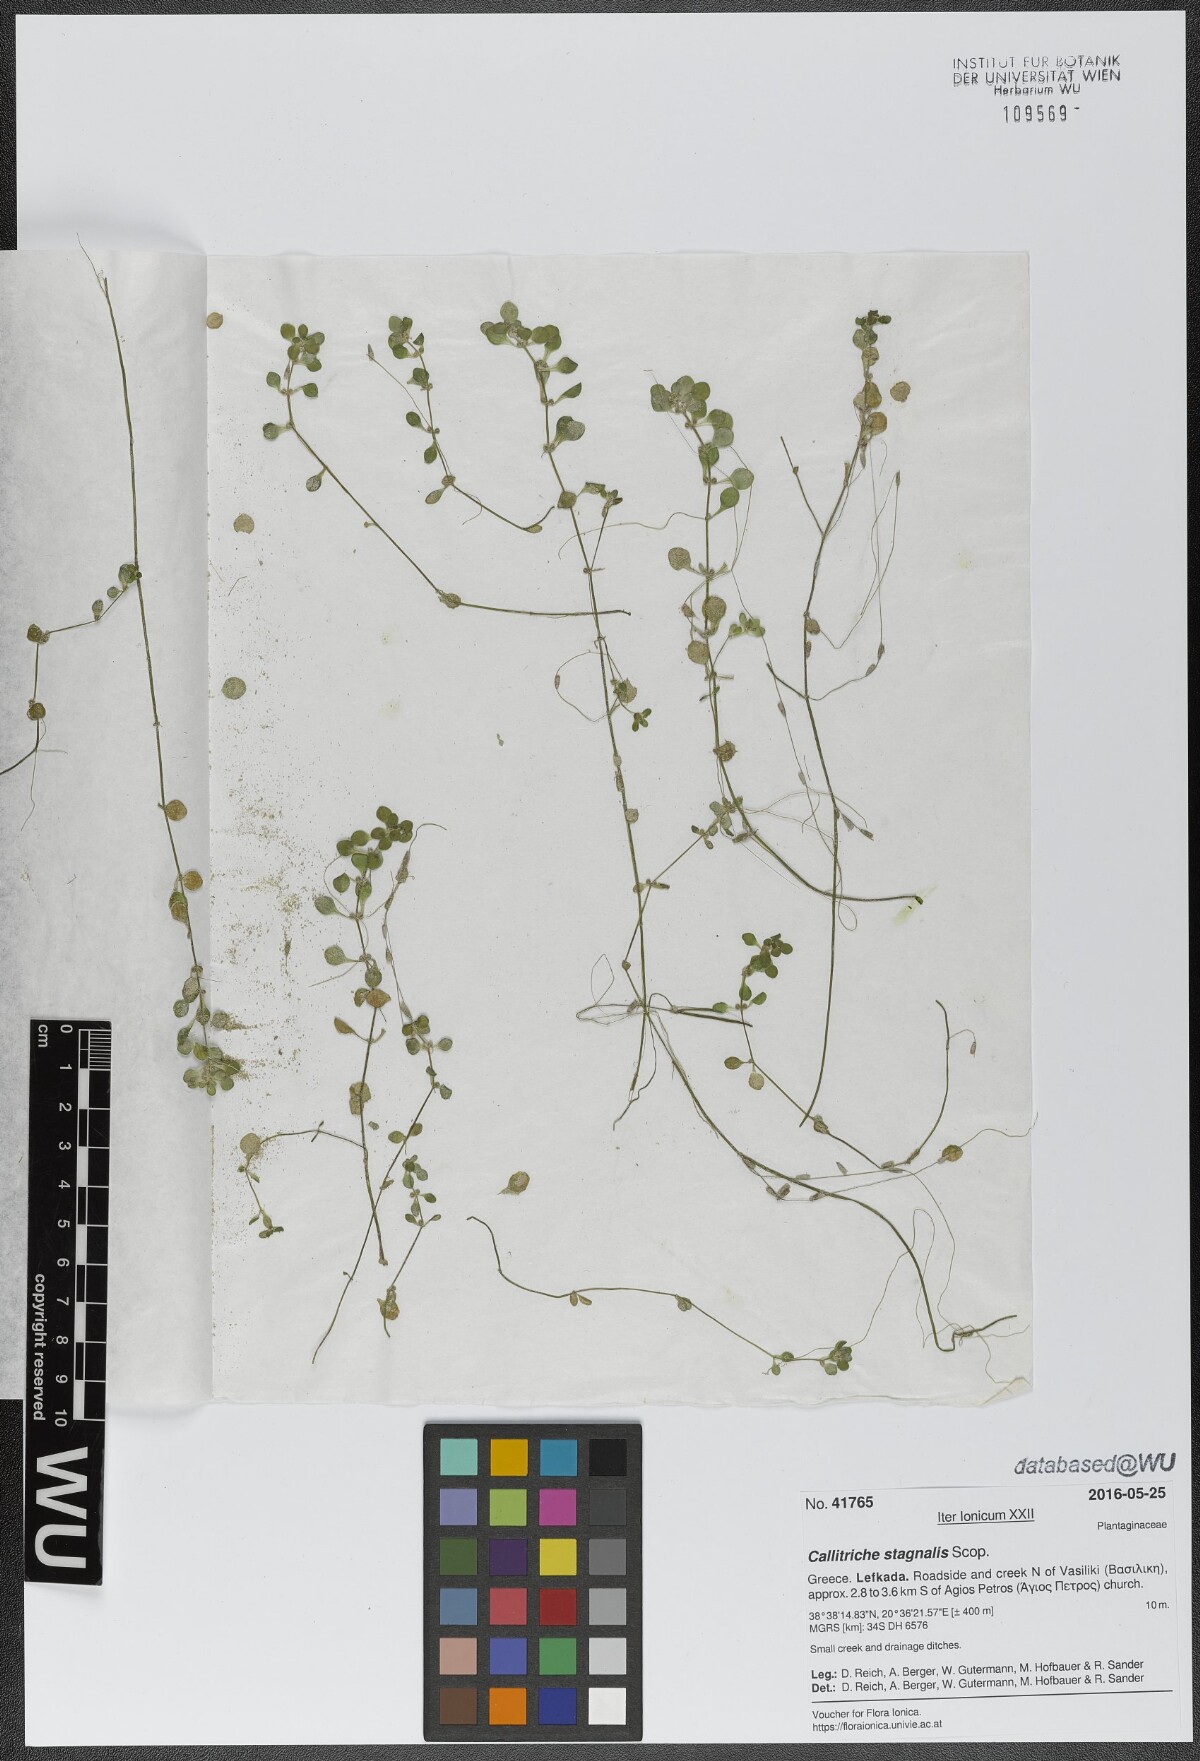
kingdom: Plantae
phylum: Tracheophyta
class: Magnoliopsida
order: Lamiales
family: Plantaginaceae
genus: Callitriche
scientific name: Callitriche stagnalis
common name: Common water-starwort
